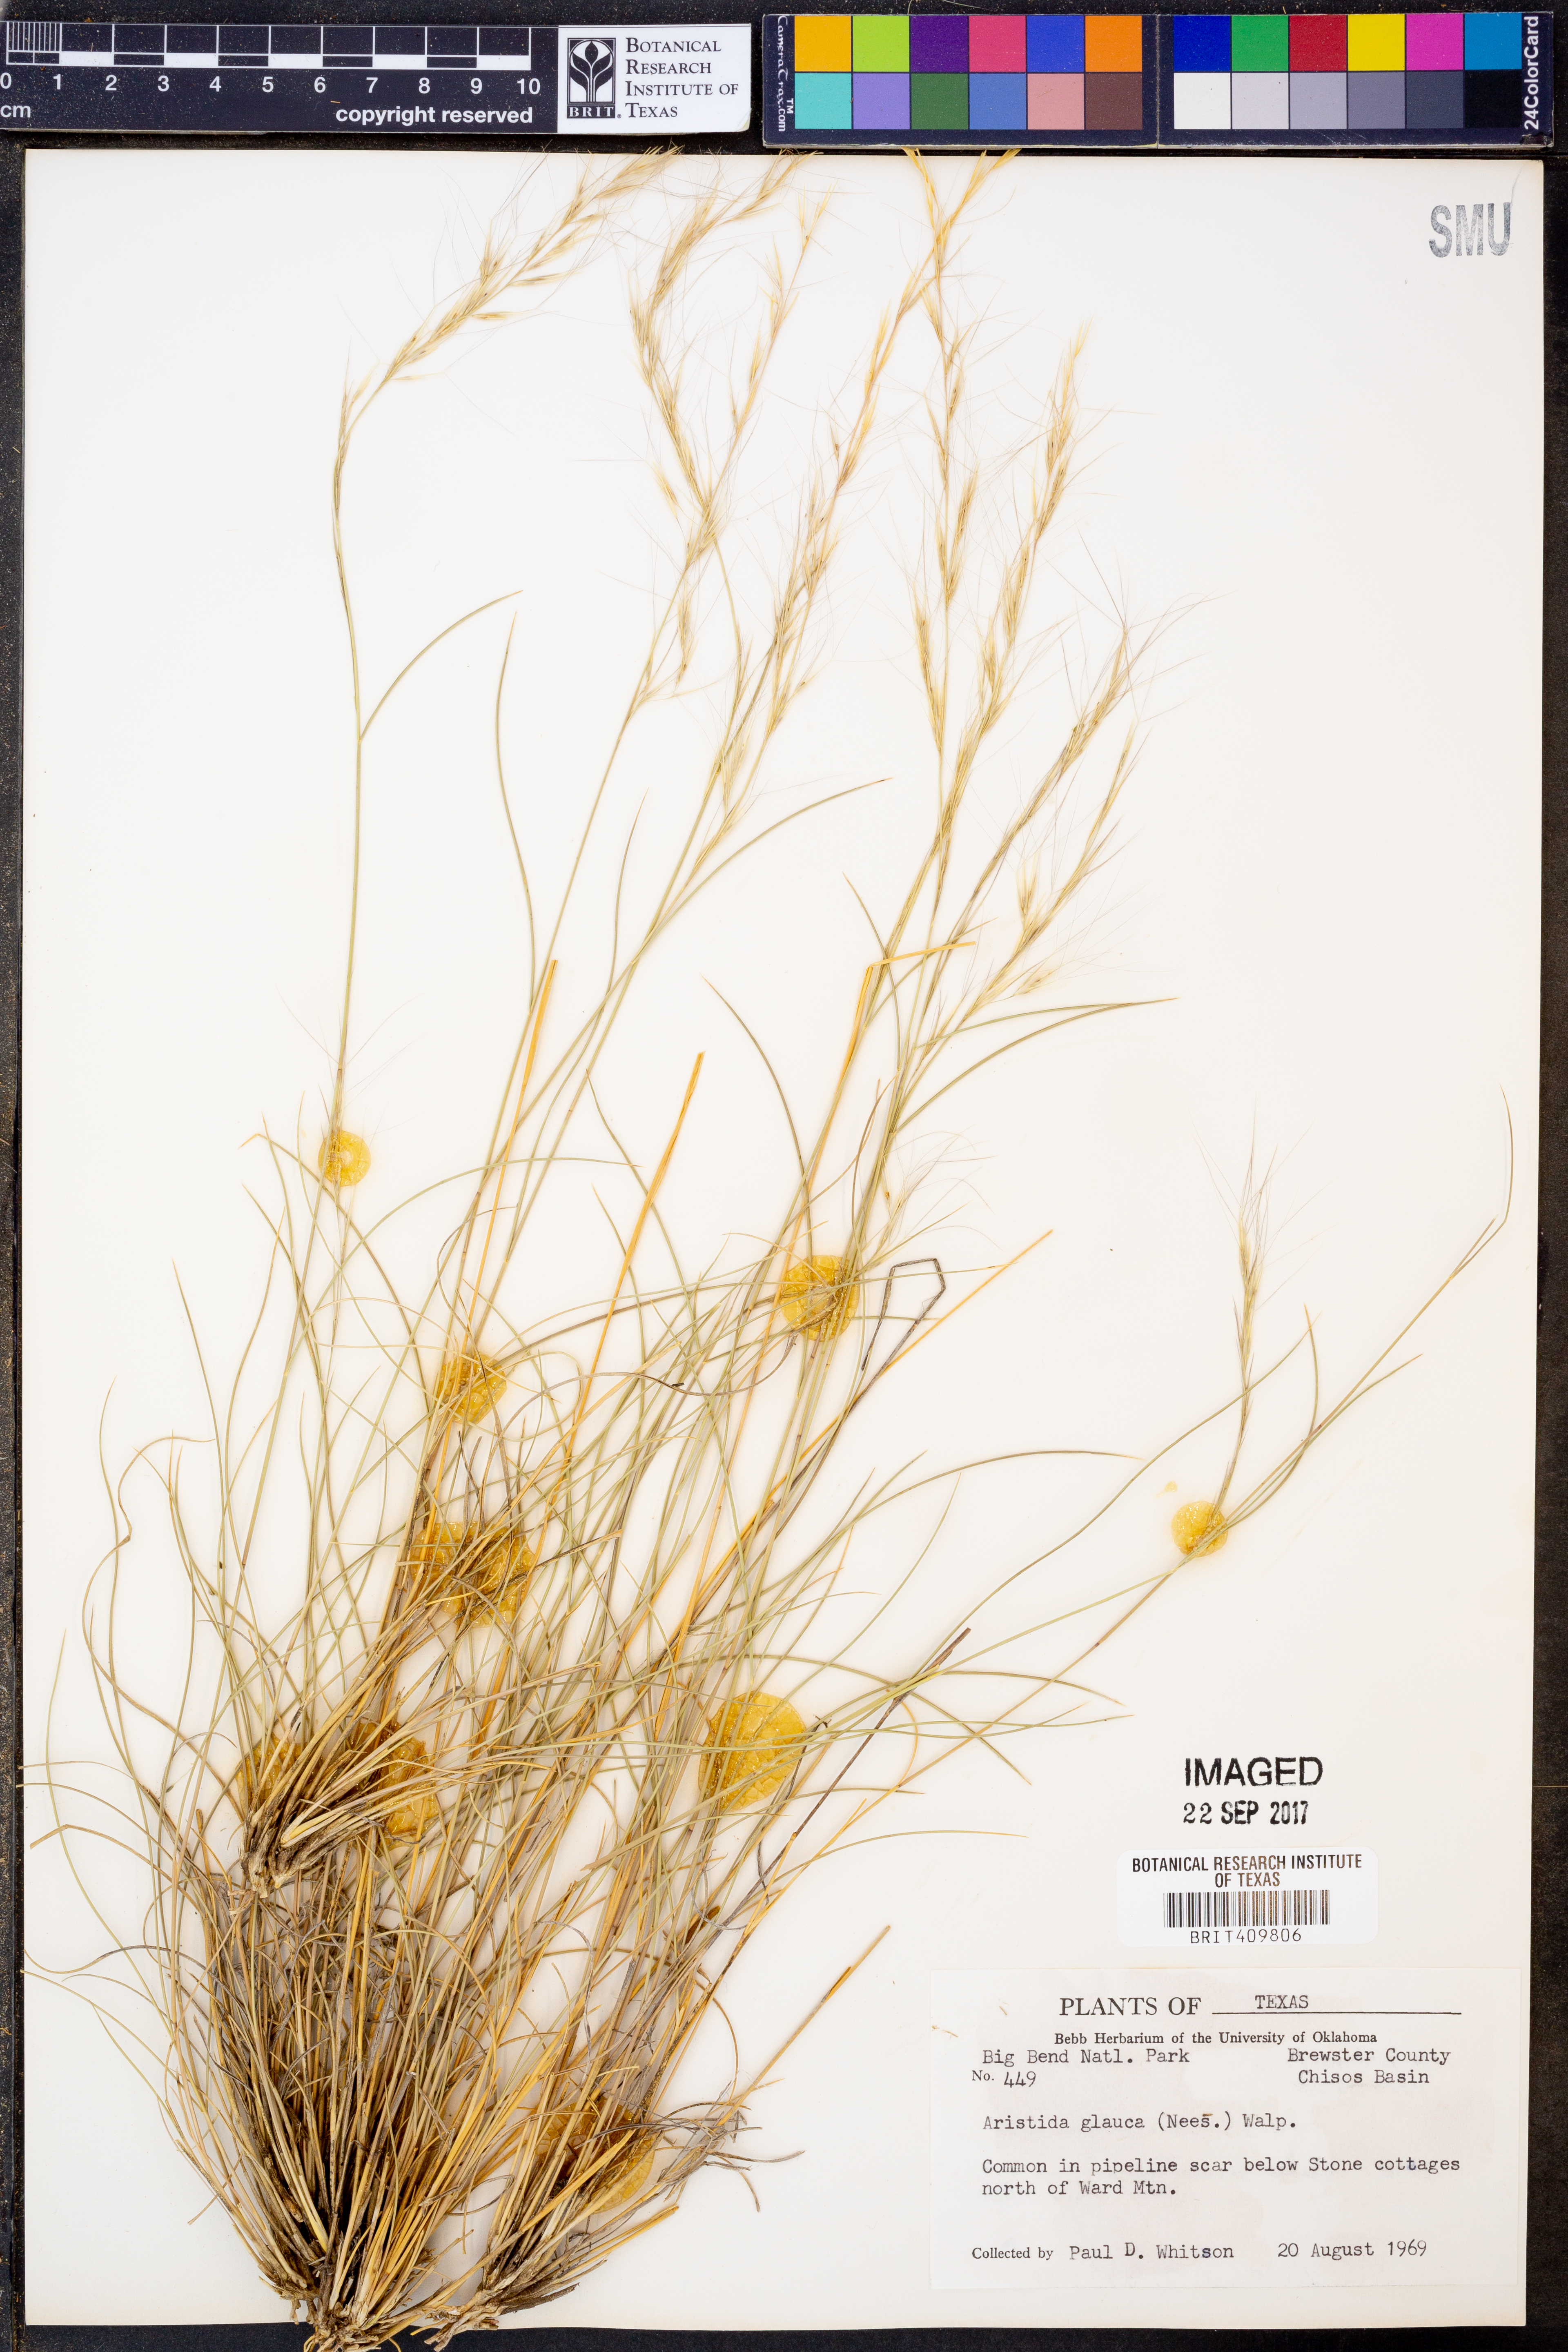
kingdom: Plantae
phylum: Tracheophyta
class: Liliopsida
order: Poales
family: Poaceae
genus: Aristida
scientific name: Aristida glauca
